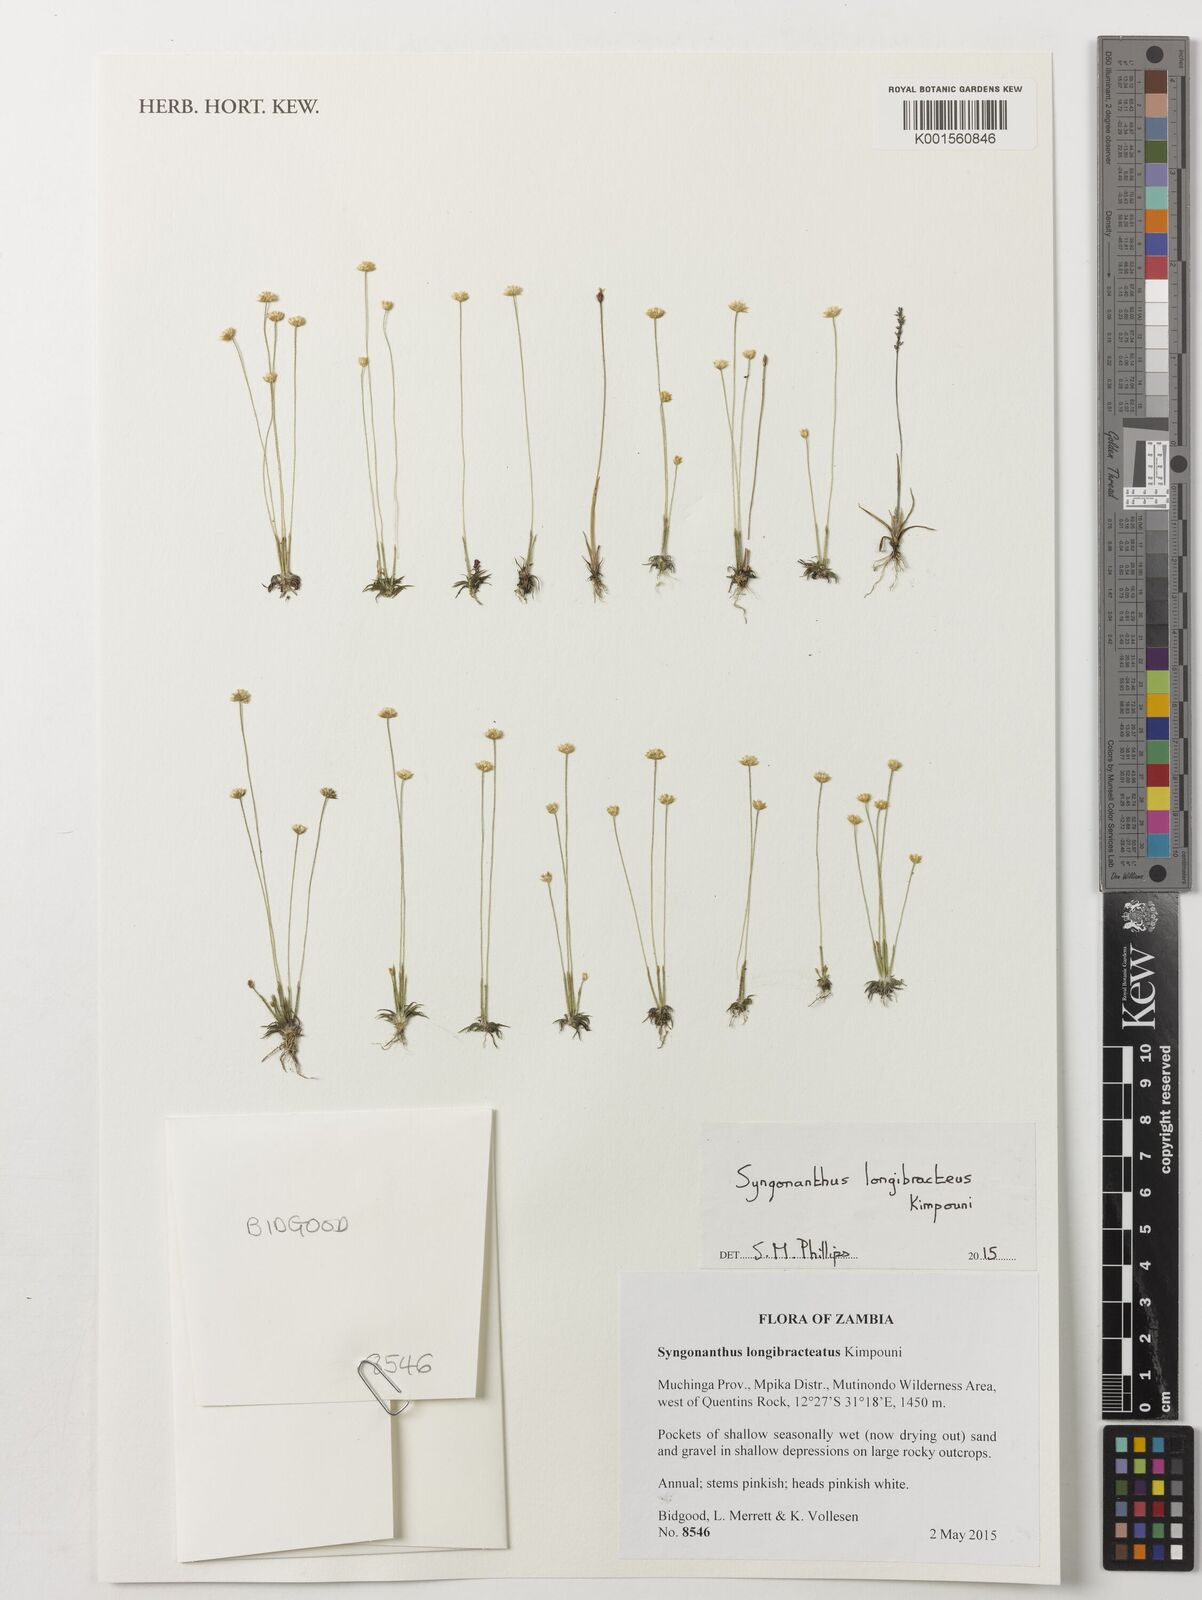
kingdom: Plantae
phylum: Tracheophyta
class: Liliopsida
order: Poales
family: Eriocaulaceae
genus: Syngonanthus
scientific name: Syngonanthus longibracteatus
